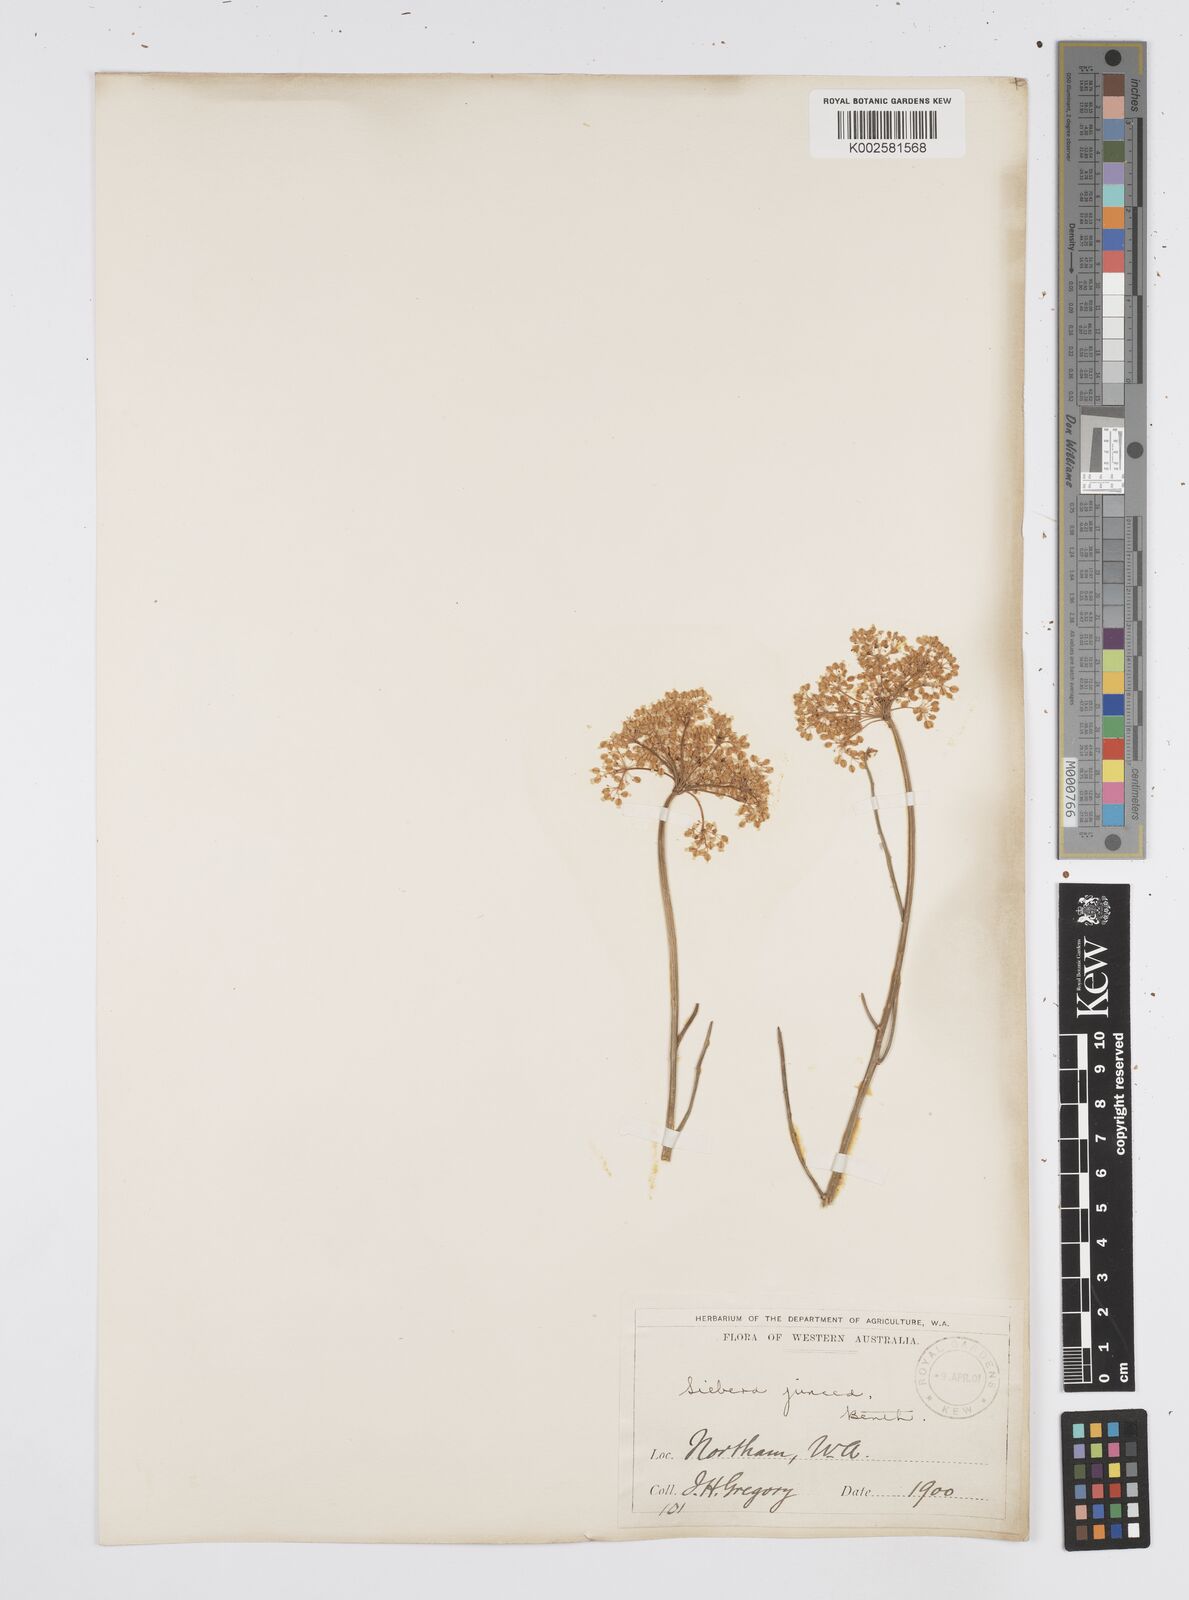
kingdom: Plantae
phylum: Tracheophyta
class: Magnoliopsida
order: Apiales
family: Apiaceae
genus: Platysace
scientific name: Platysace juncea
